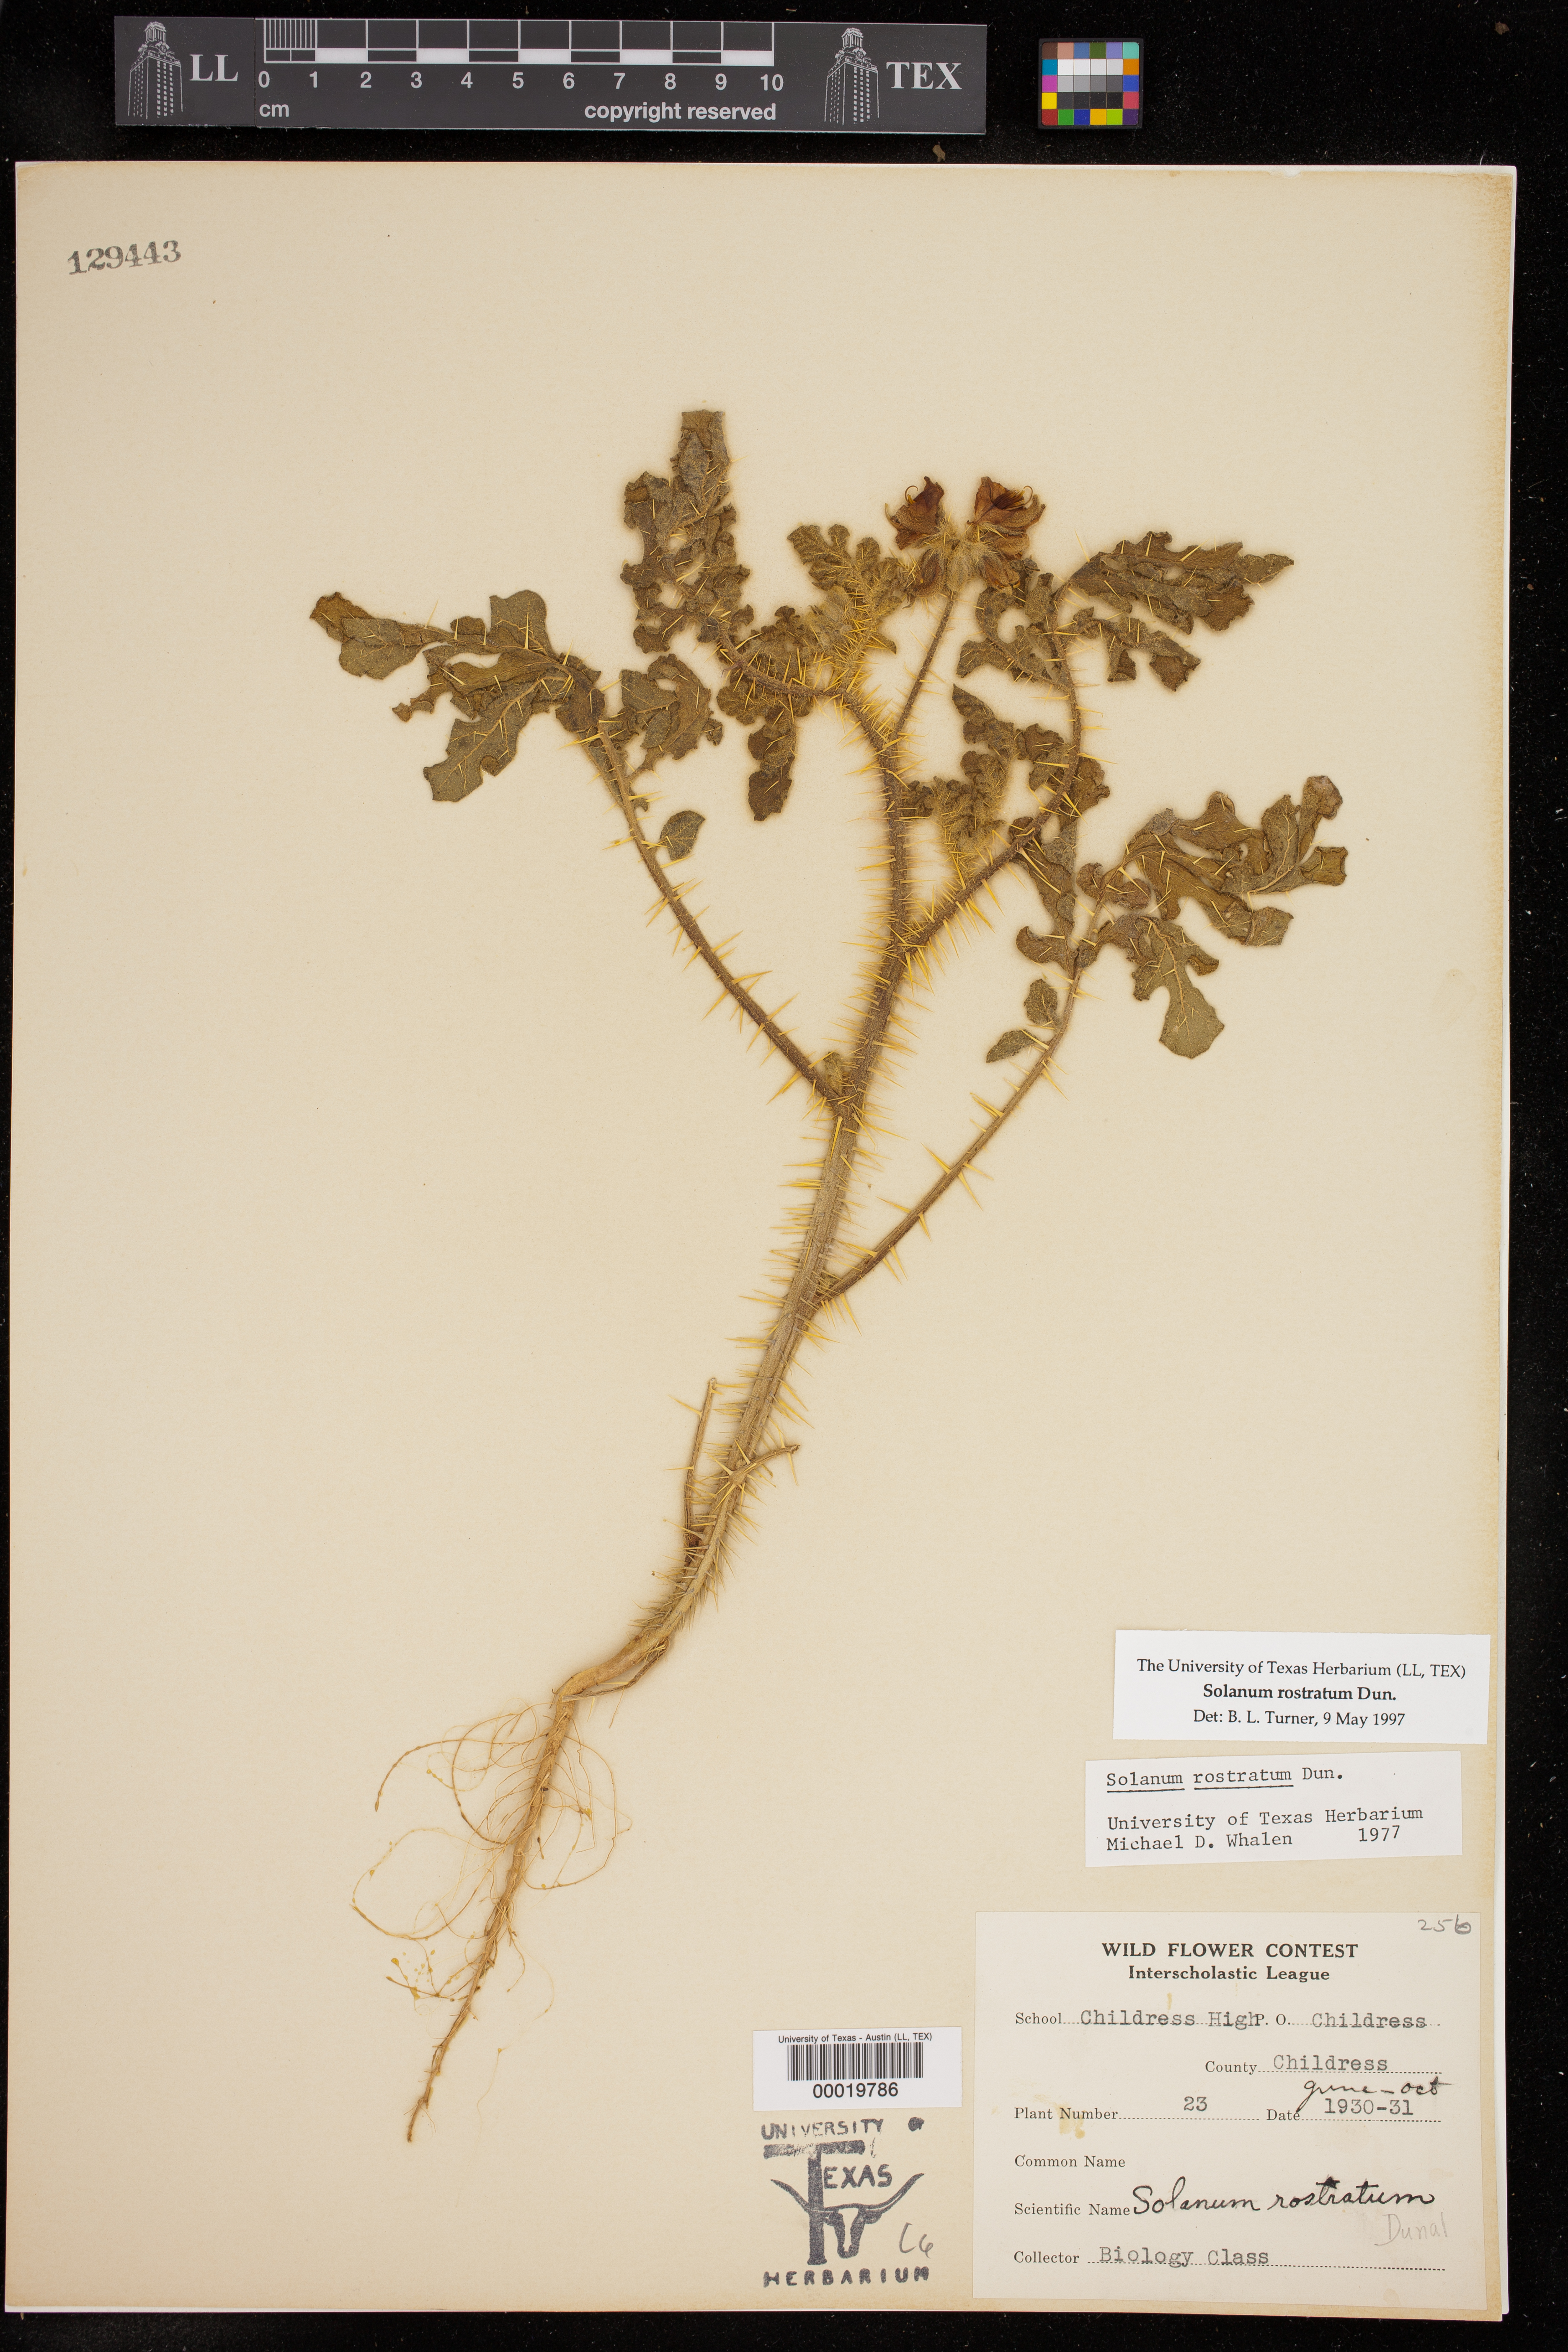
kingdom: Plantae
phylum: Tracheophyta
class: Magnoliopsida
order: Solanales
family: Solanaceae
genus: Solanum
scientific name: Solanum angustifolium
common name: Buffalobur nightshade
